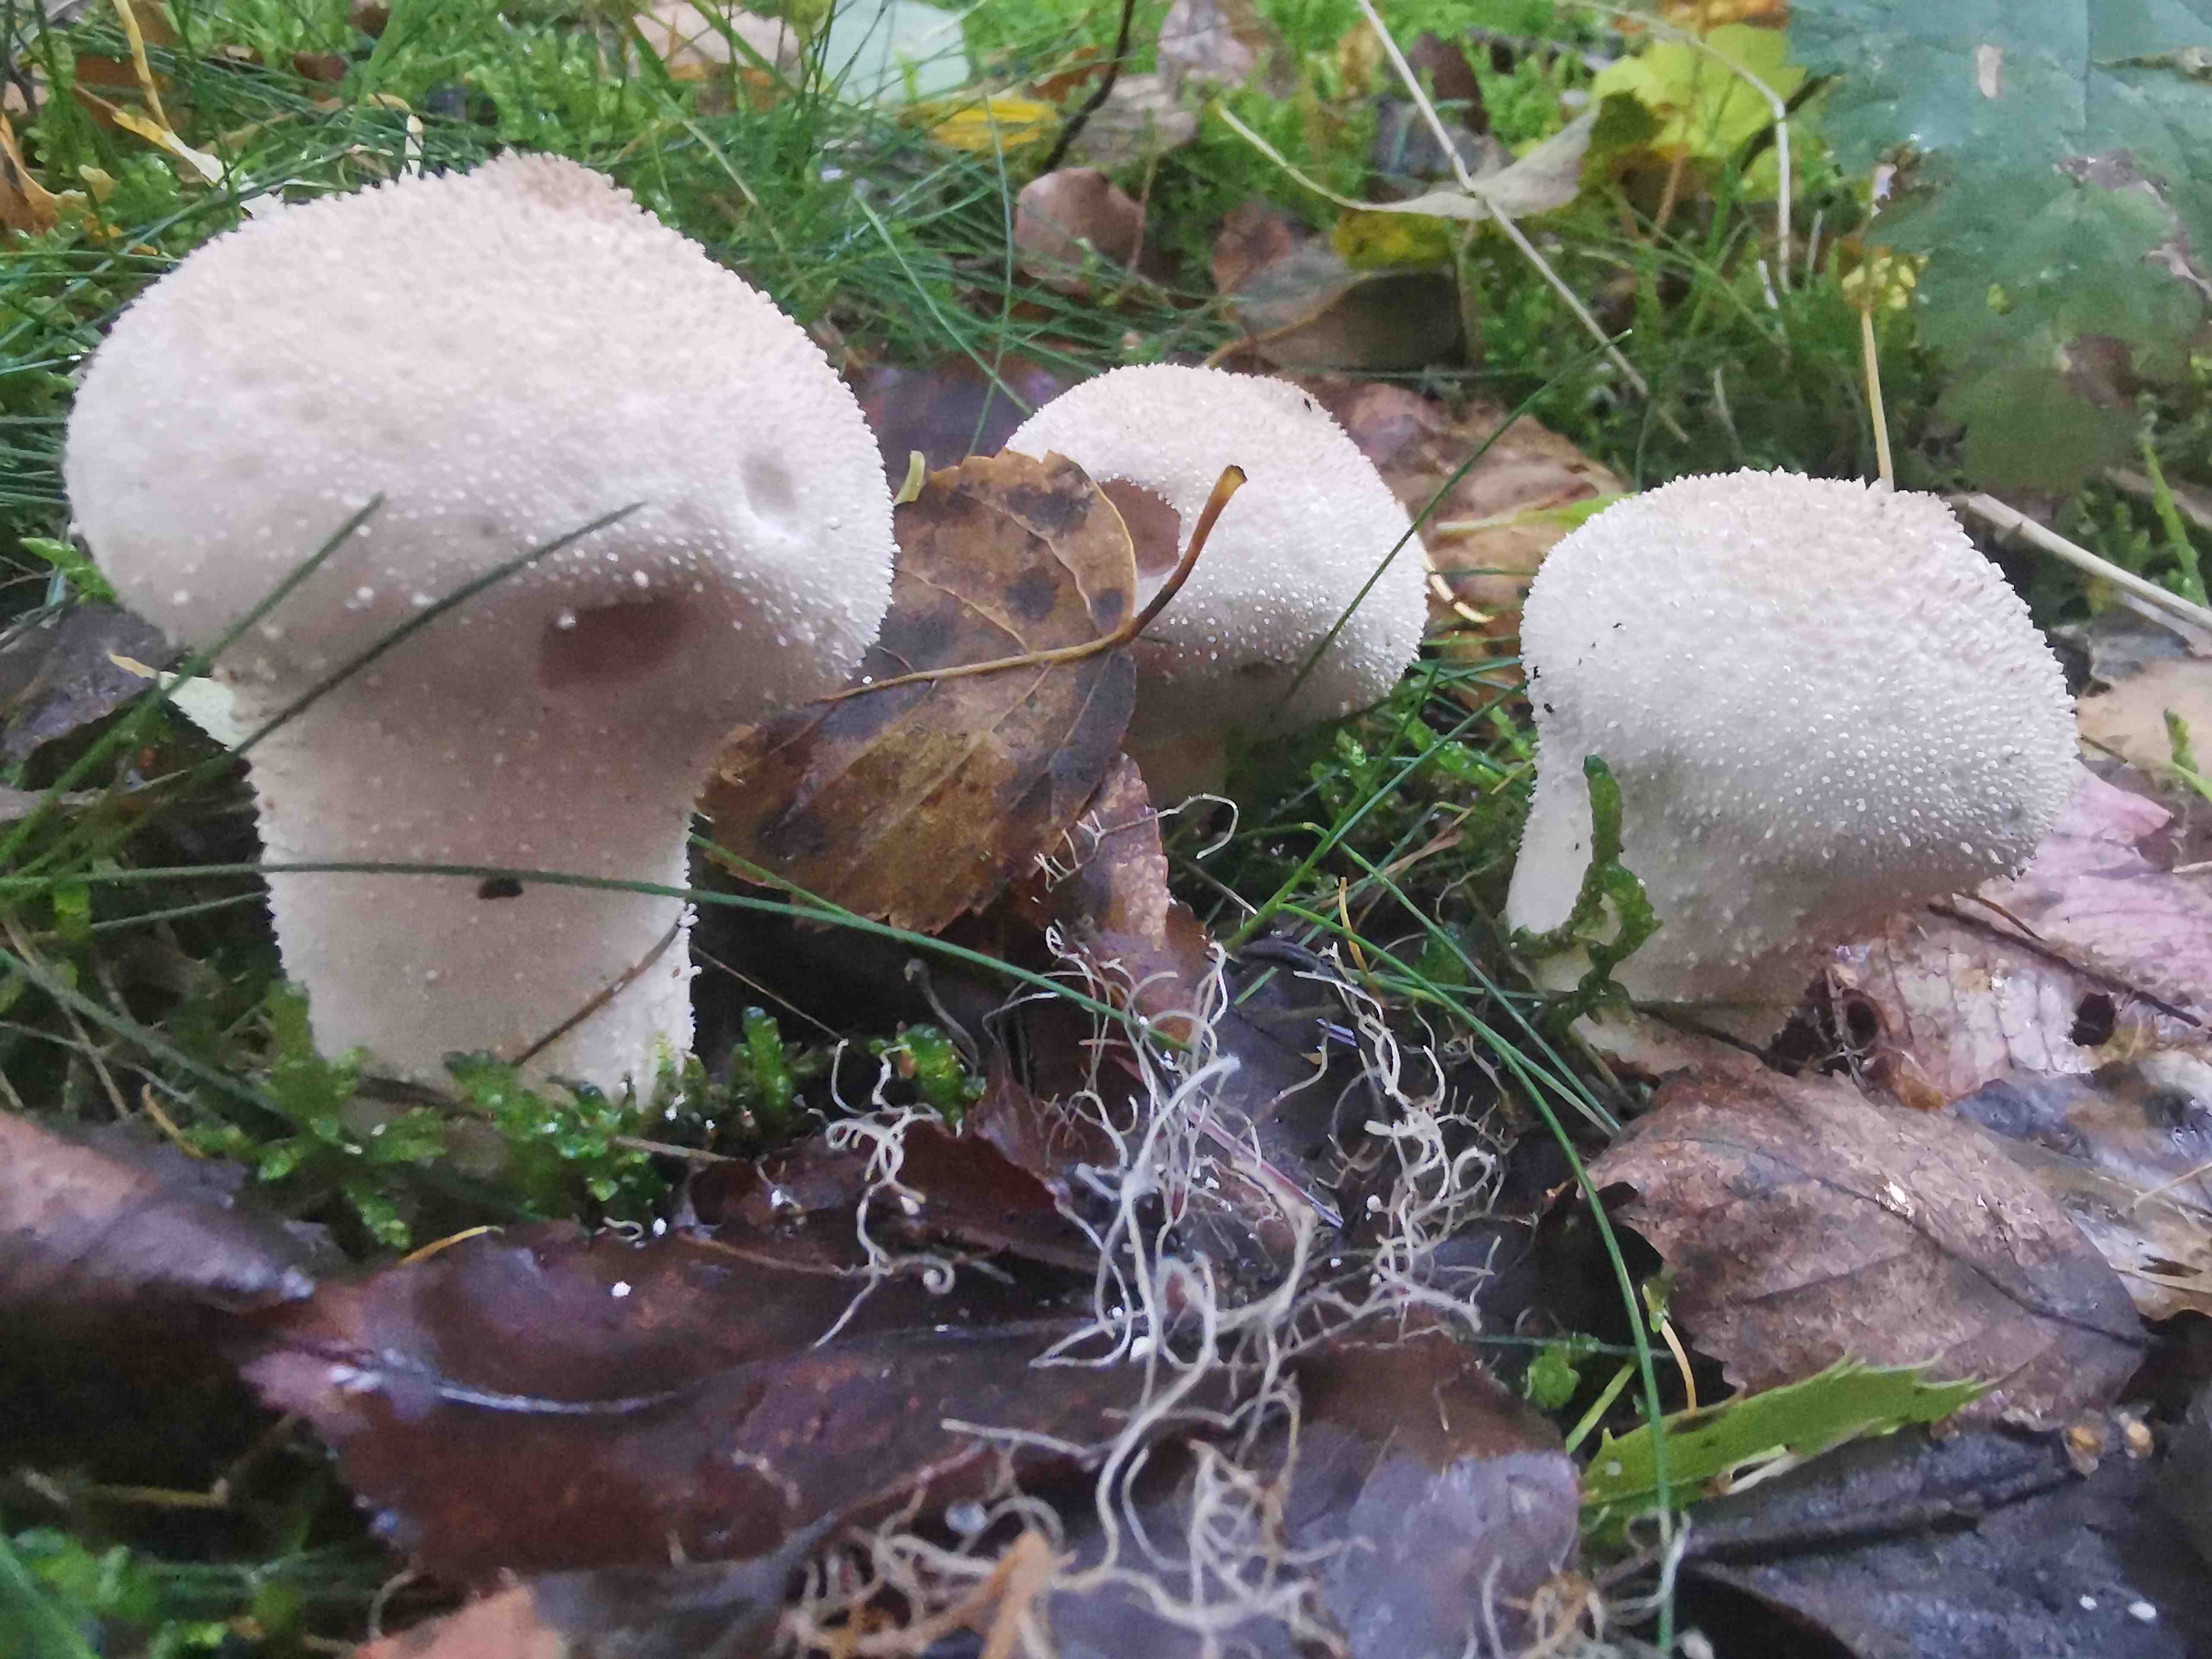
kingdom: Fungi
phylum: Basidiomycota
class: Agaricomycetes
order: Agaricales
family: Lycoperdaceae
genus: Lycoperdon
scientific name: Lycoperdon perlatum
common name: krystal-støvbold
